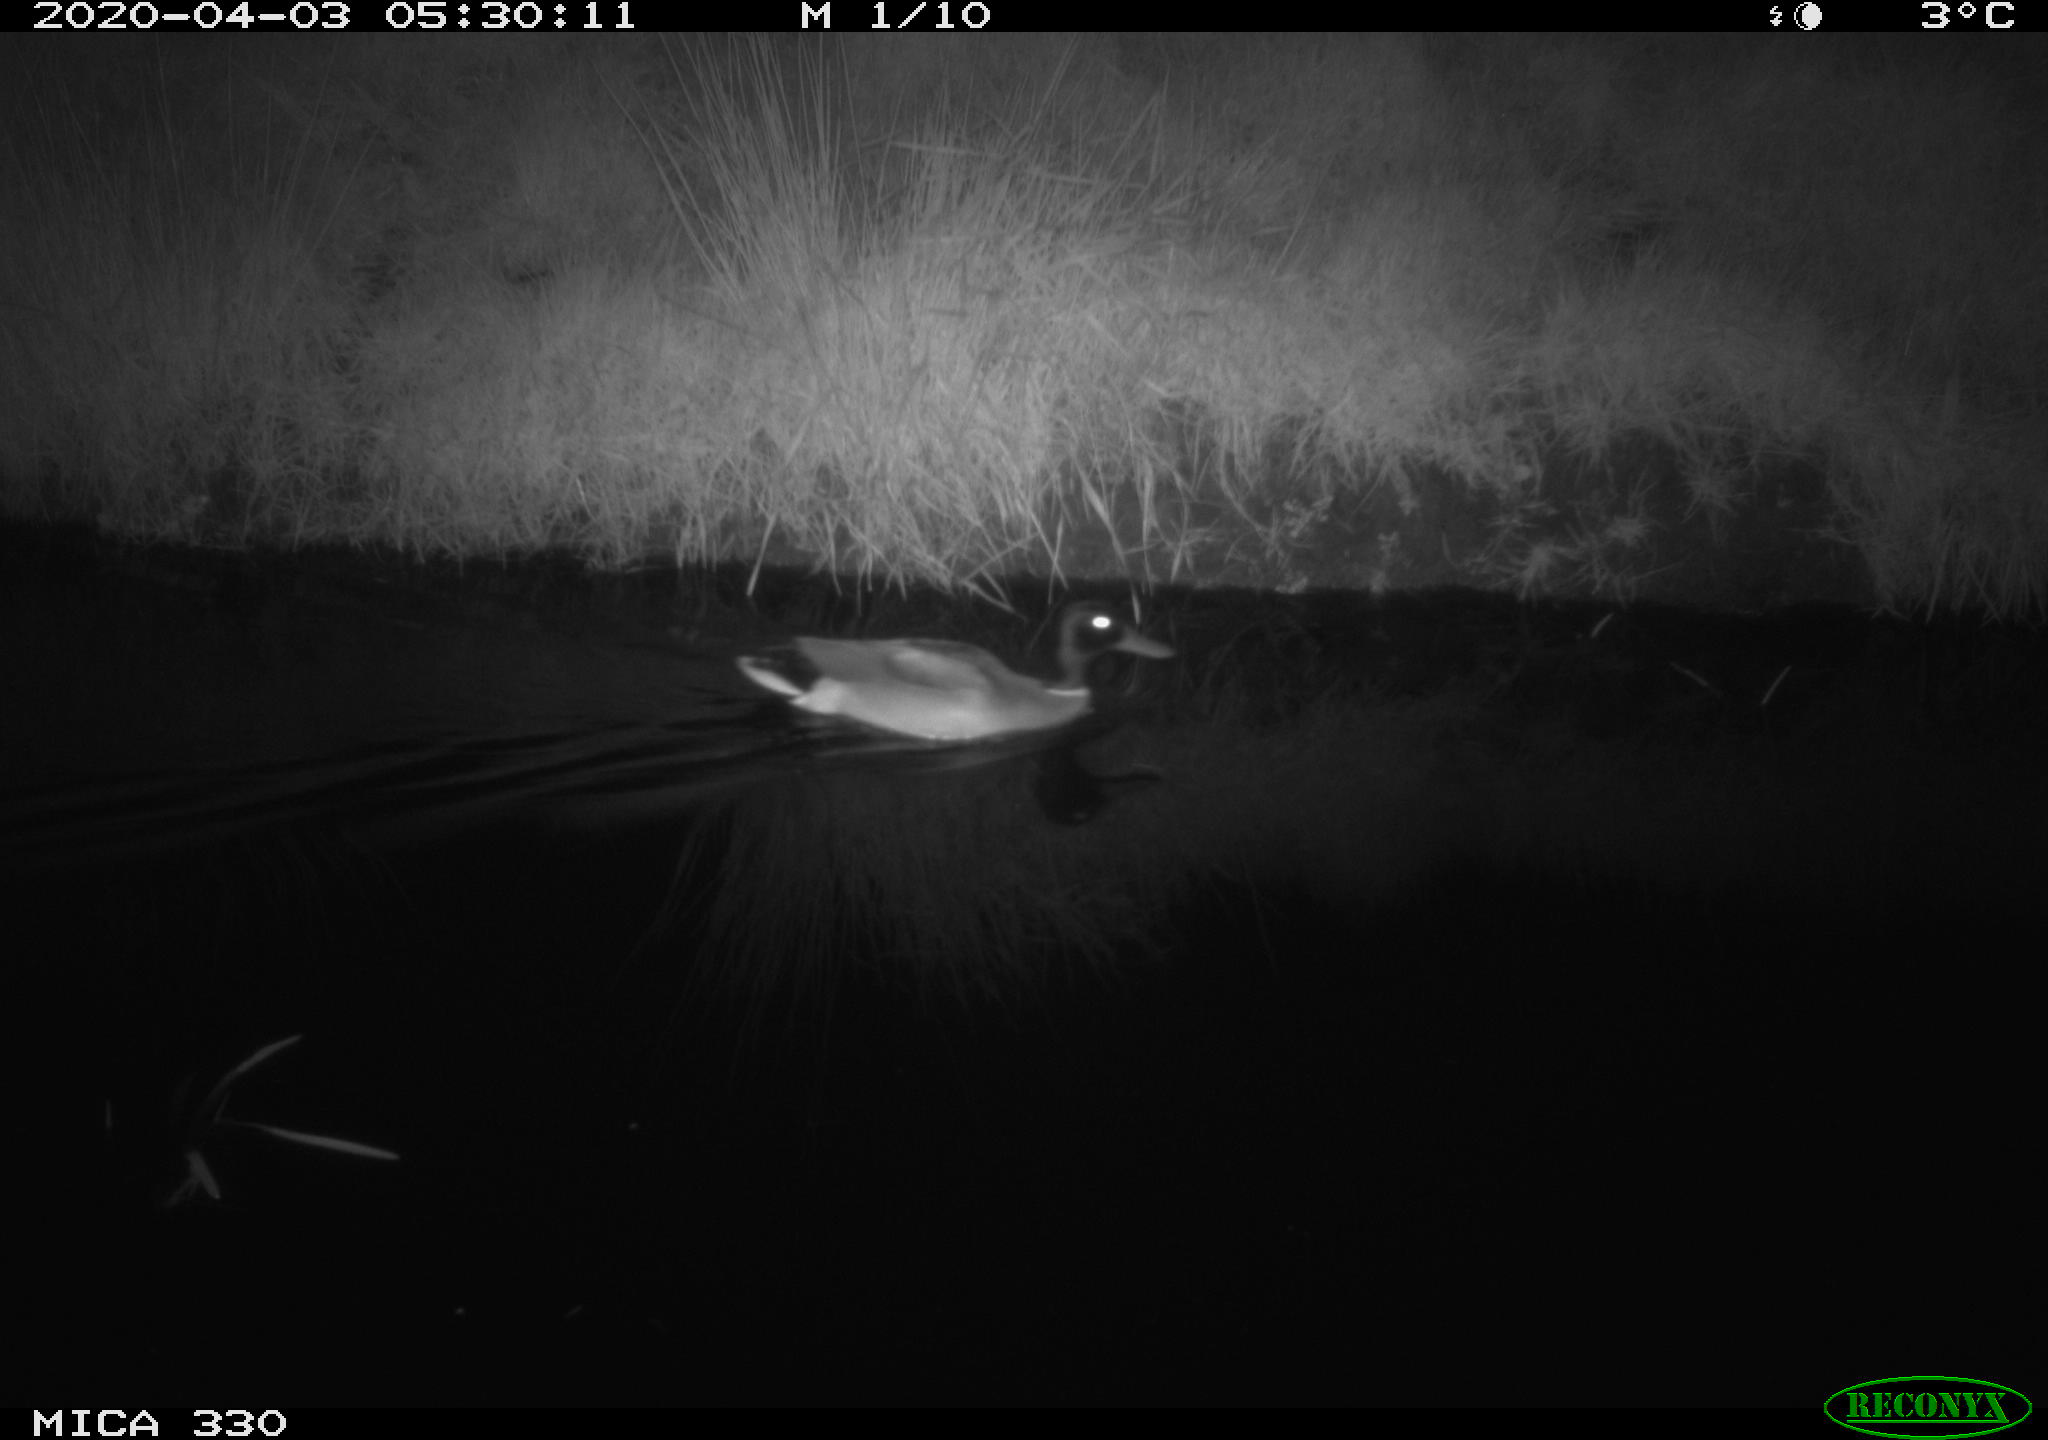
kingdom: Animalia
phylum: Chordata
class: Aves
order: Anseriformes
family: Anatidae
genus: Anas
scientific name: Anas platyrhynchos
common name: Mallard
